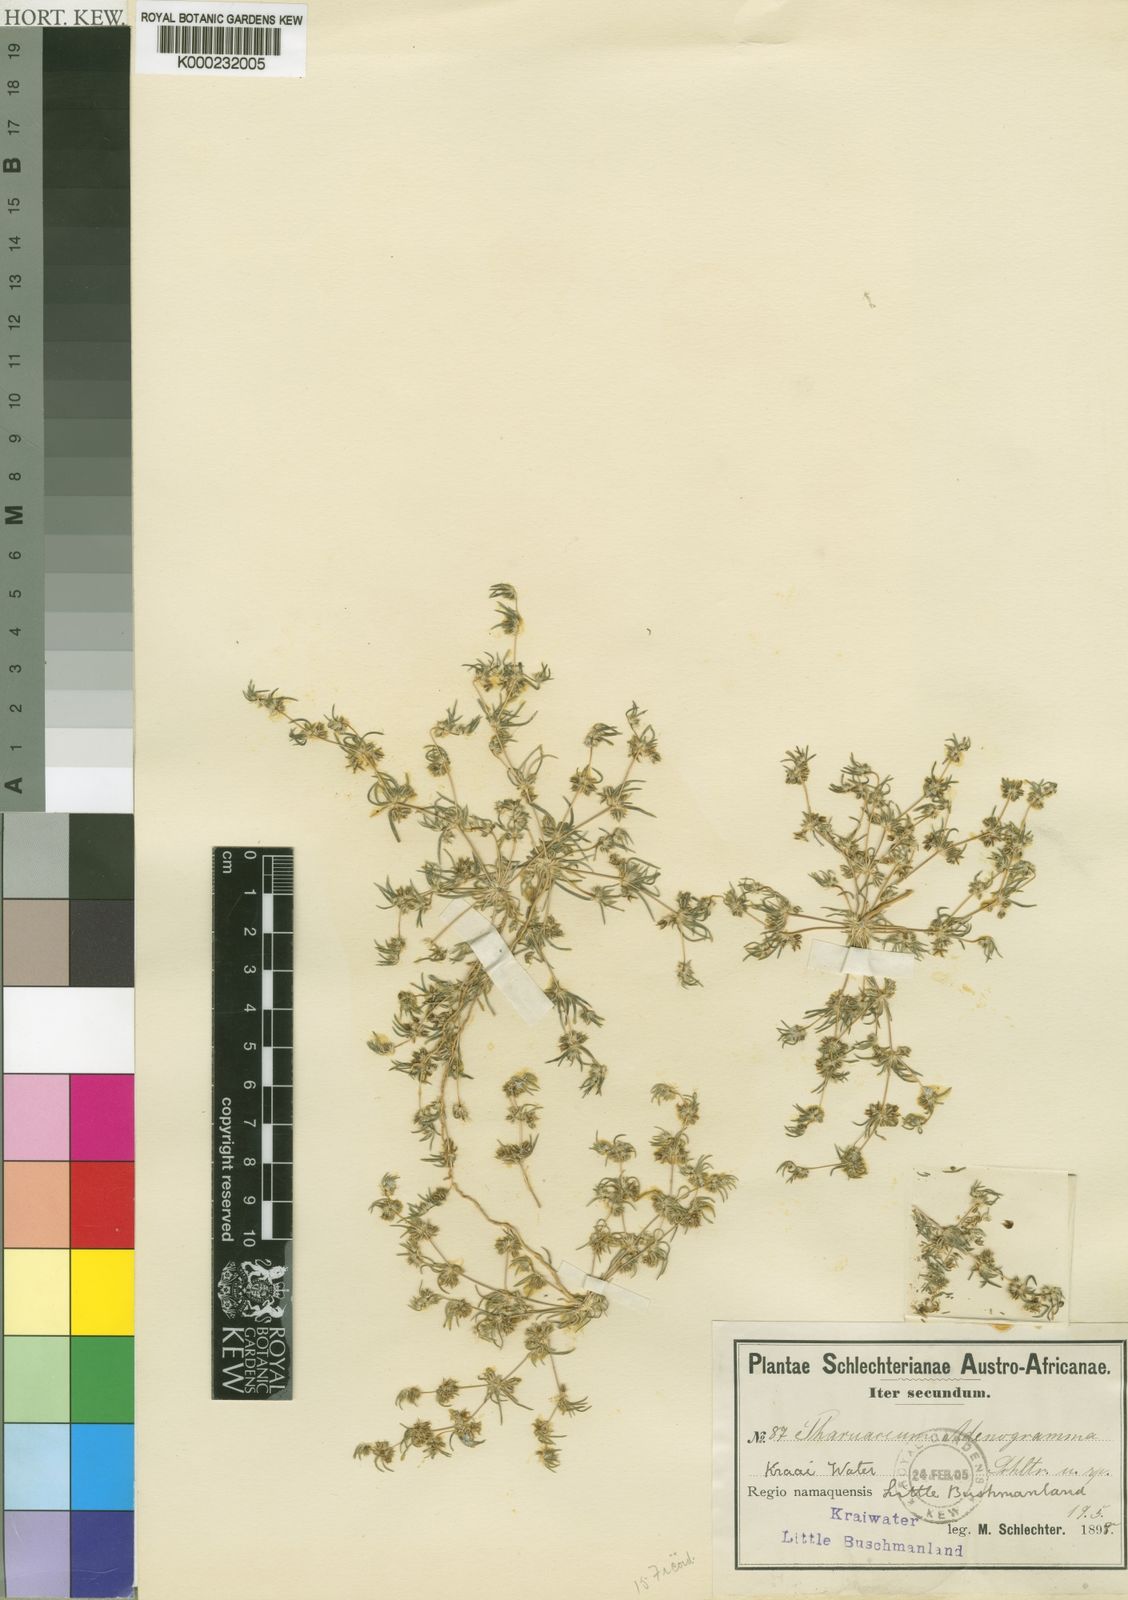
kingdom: Plantae
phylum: Tracheophyta
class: Magnoliopsida
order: Caryophyllales
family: Molluginaceae
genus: Suessenguthiella
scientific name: Suessenguthiella scleranthoides
